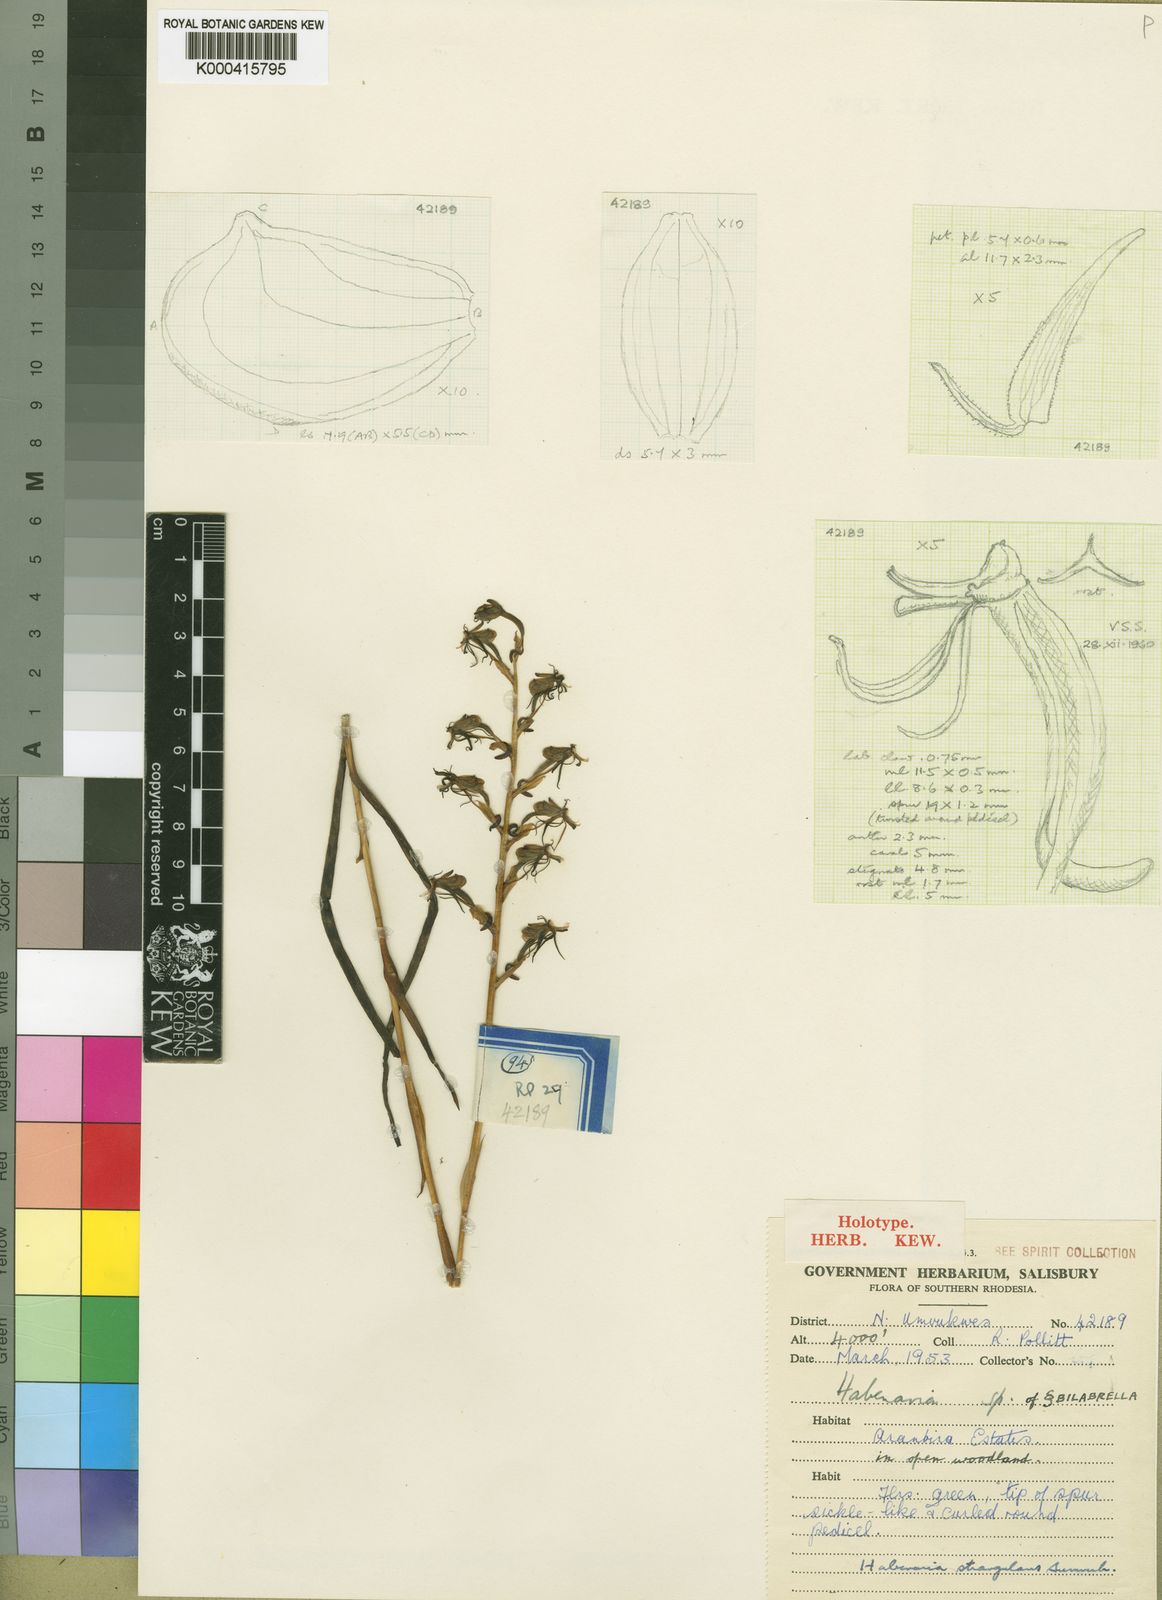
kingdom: Plantae
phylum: Tracheophyta
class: Liliopsida
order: Asparagales
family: Orchidaceae
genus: Habenaria
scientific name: Habenaria strangulans
